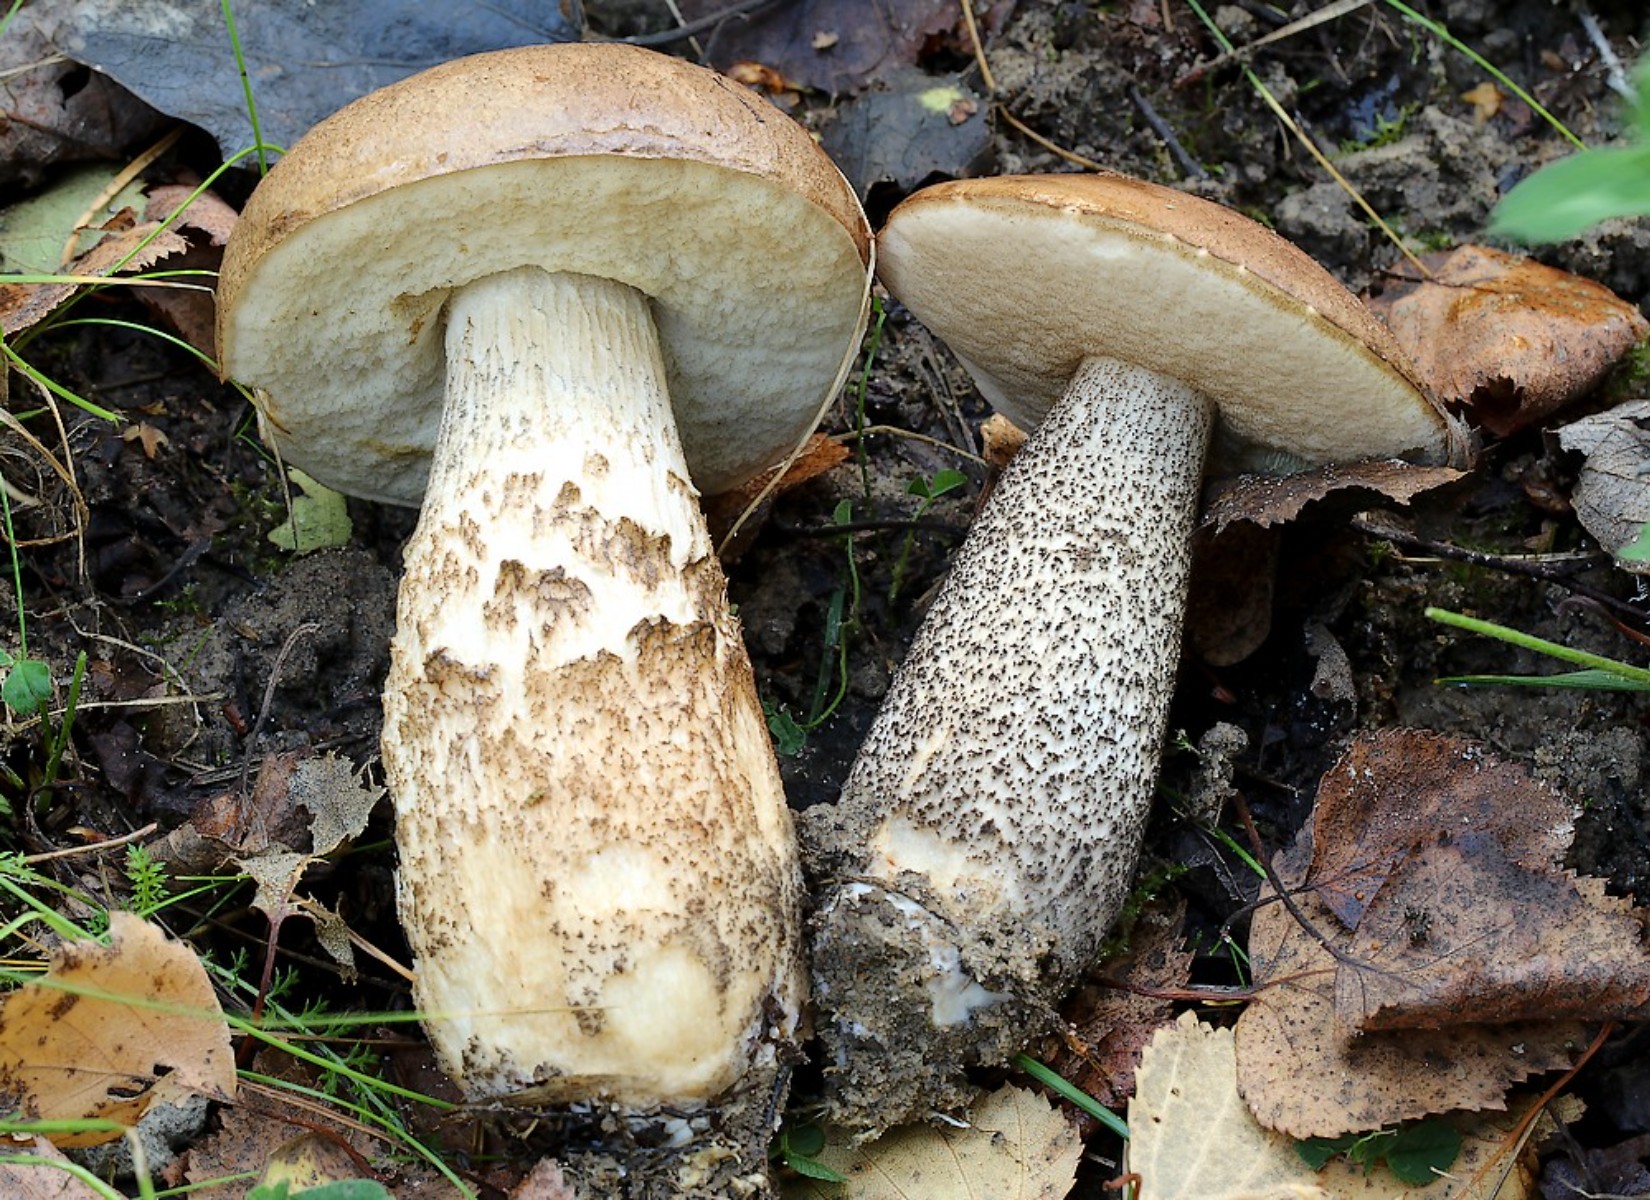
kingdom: Fungi
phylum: Basidiomycota
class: Agaricomycetes
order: Boletales
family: Boletaceae
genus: Leccinum
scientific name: Leccinum scabrum
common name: brun skælrørhat
